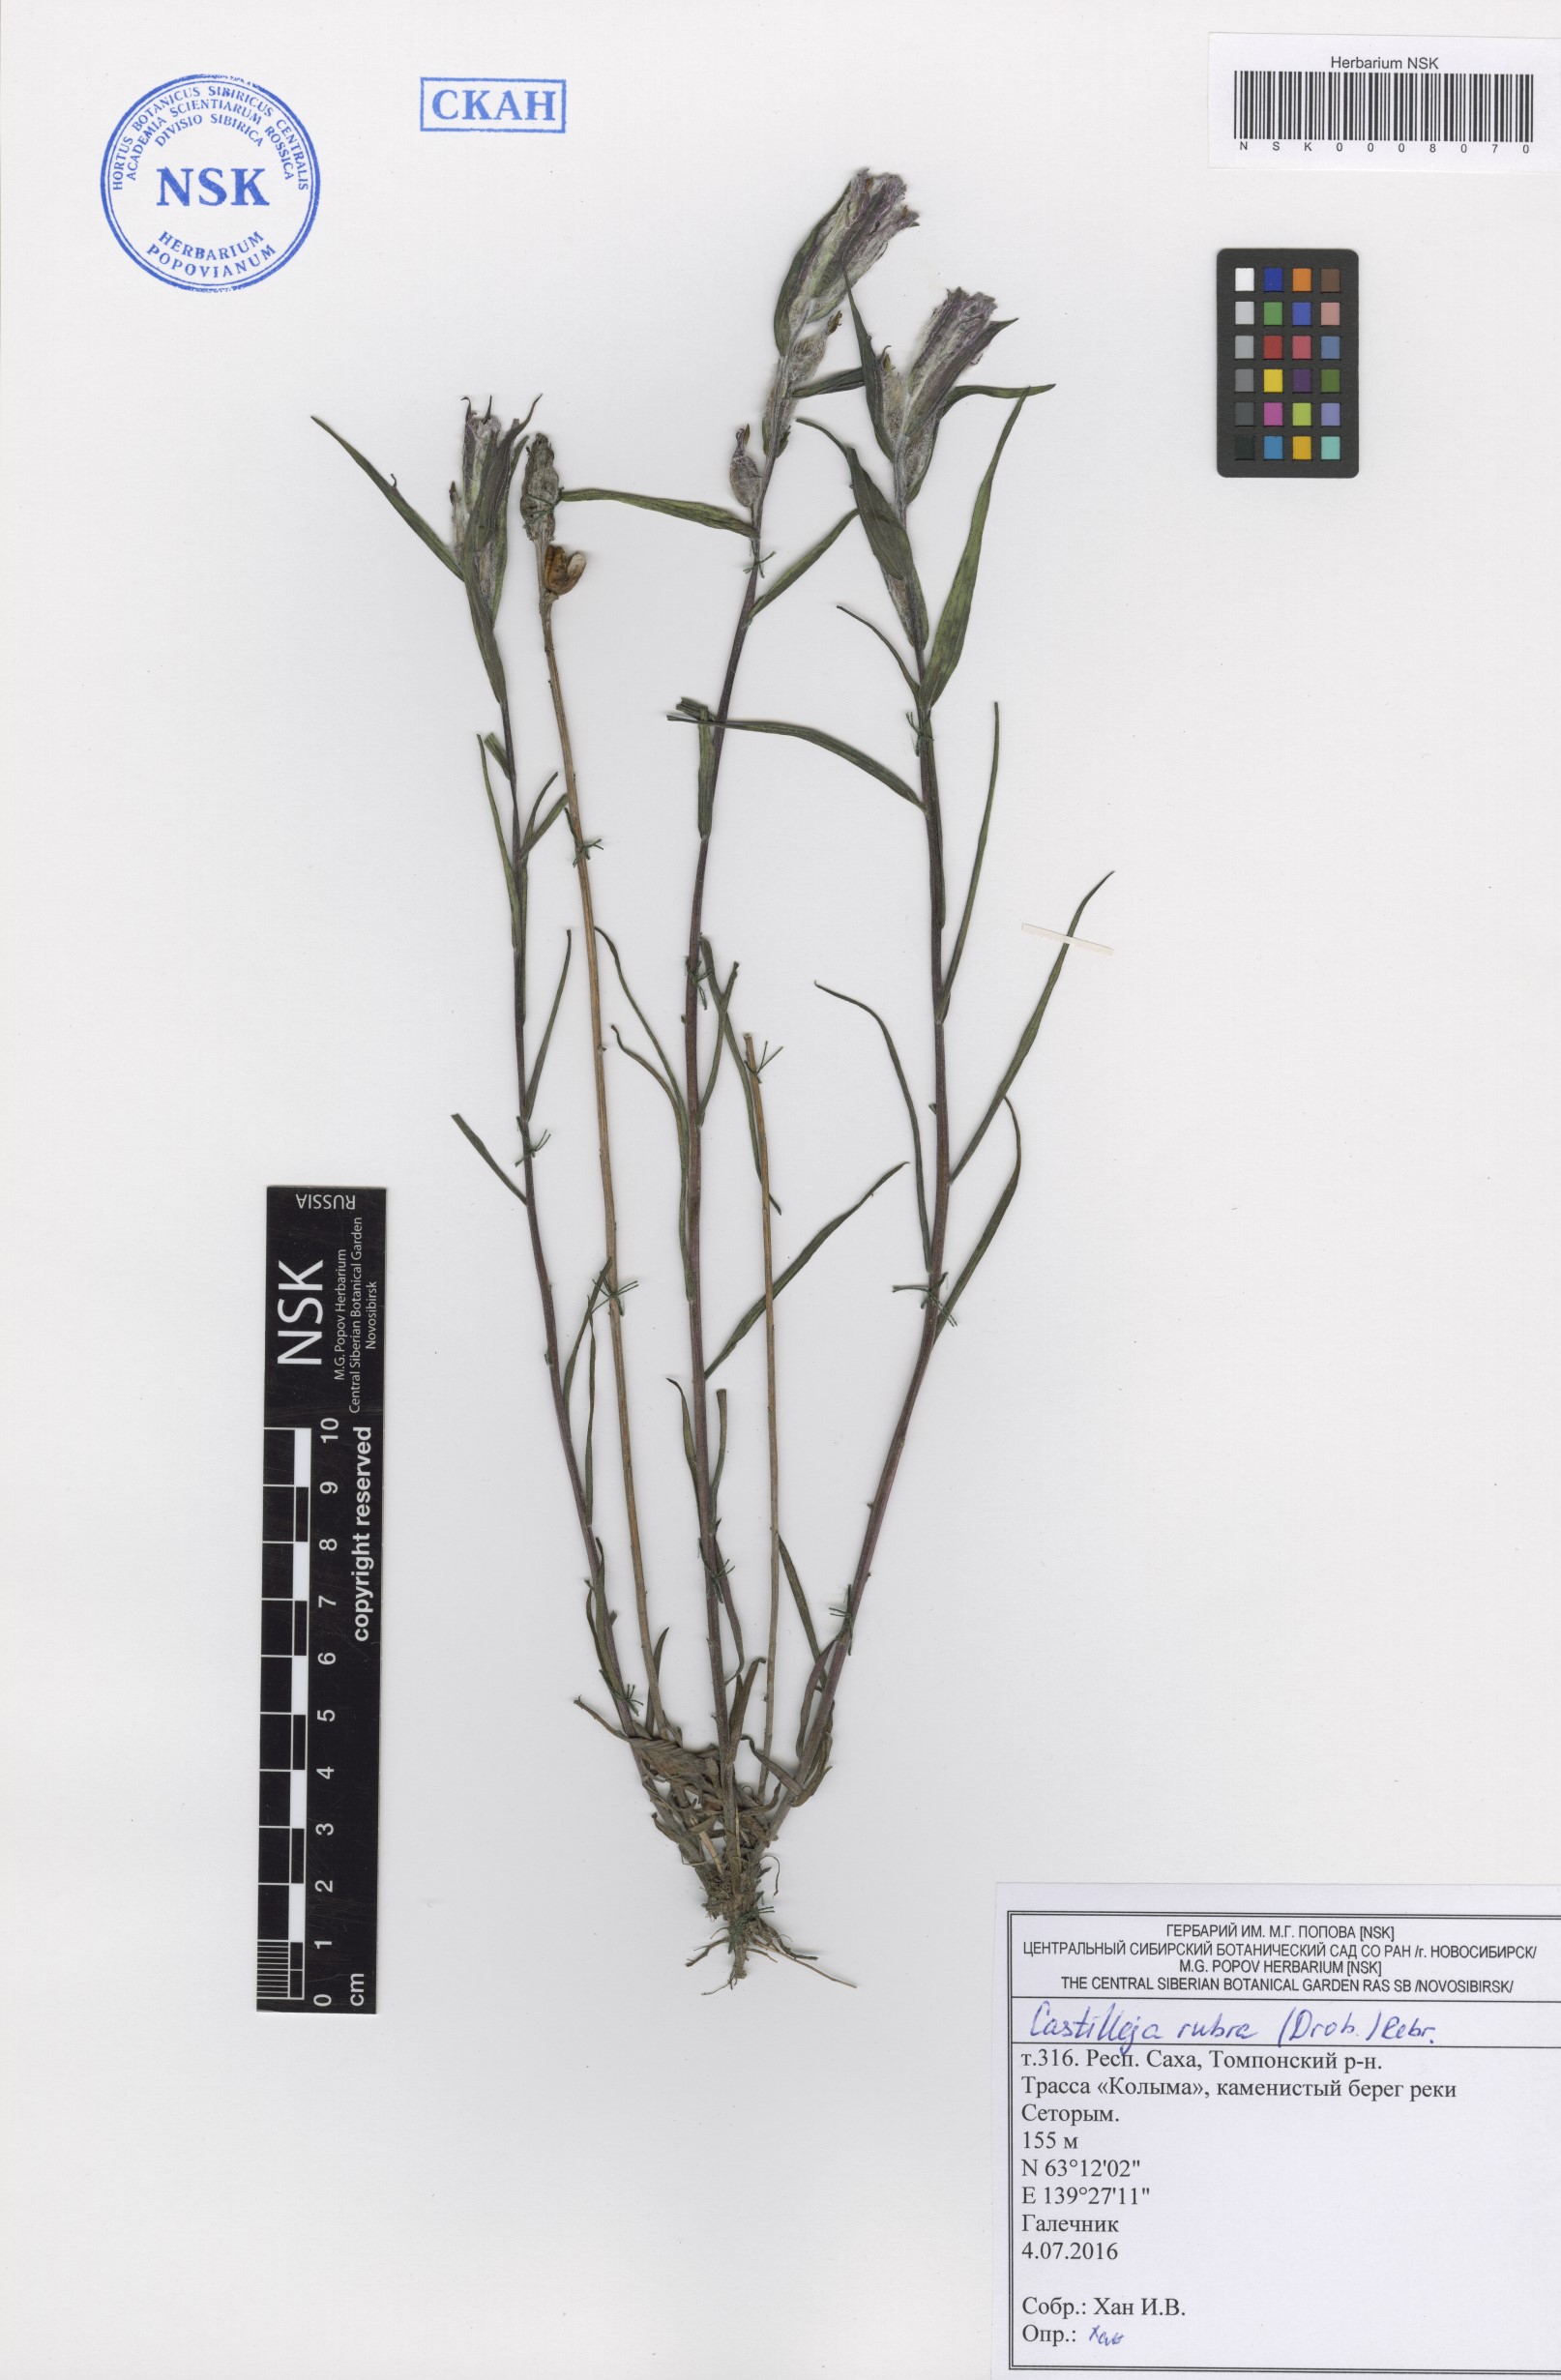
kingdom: Plantae
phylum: Tracheophyta
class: Magnoliopsida
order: Lamiales
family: Orobanchaceae
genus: Castilleja
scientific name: Castilleja rubra
